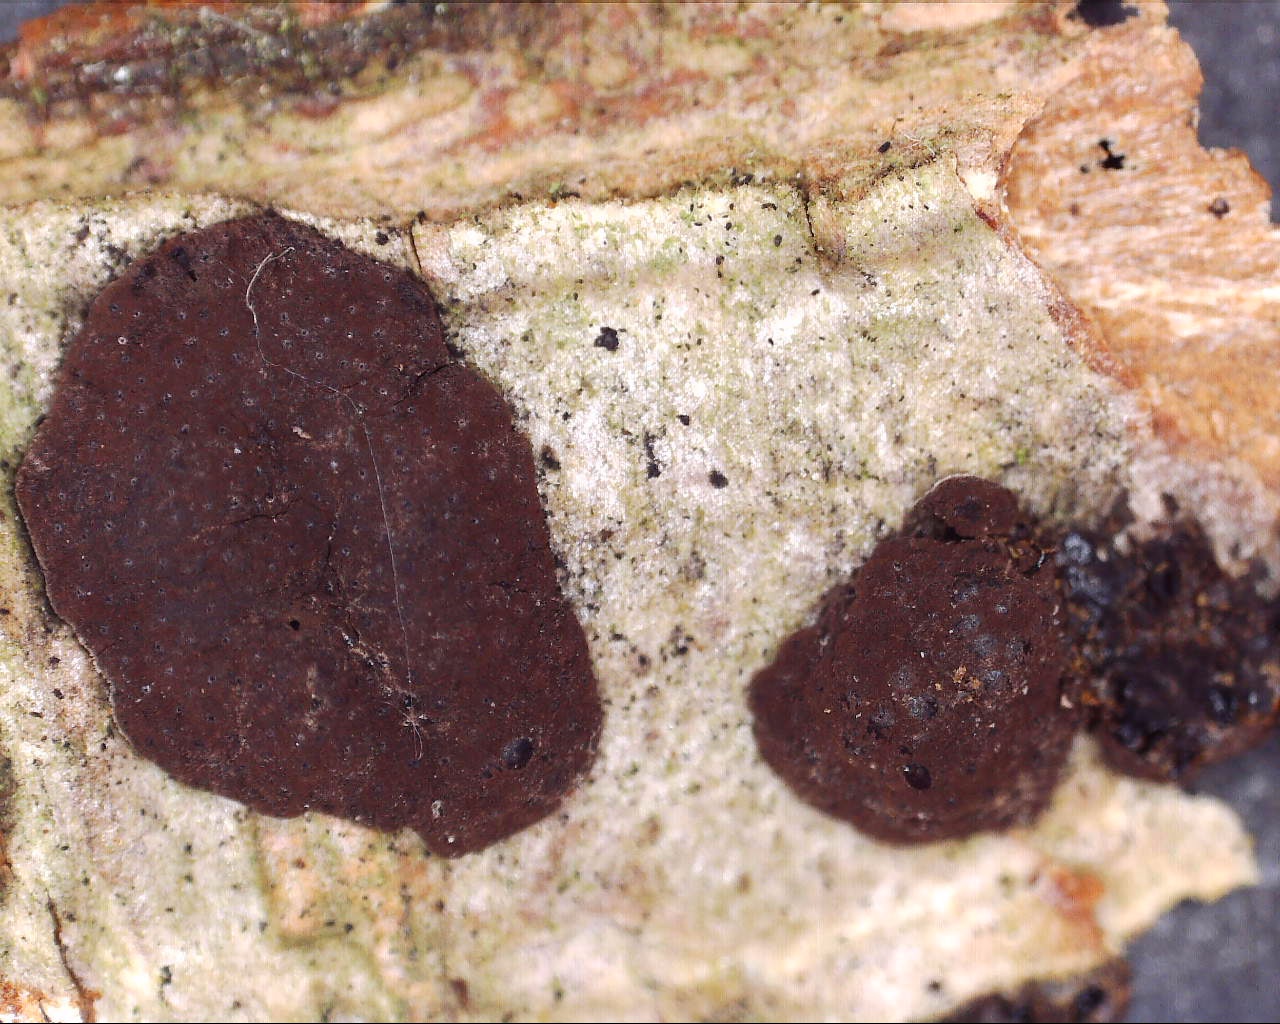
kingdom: Fungi
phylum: Ascomycota
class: Sordariomycetes
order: Xylariales
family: Hypoxylaceae
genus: Hypoxylon
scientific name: Hypoxylon fuscum
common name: kegleformet kulbær
